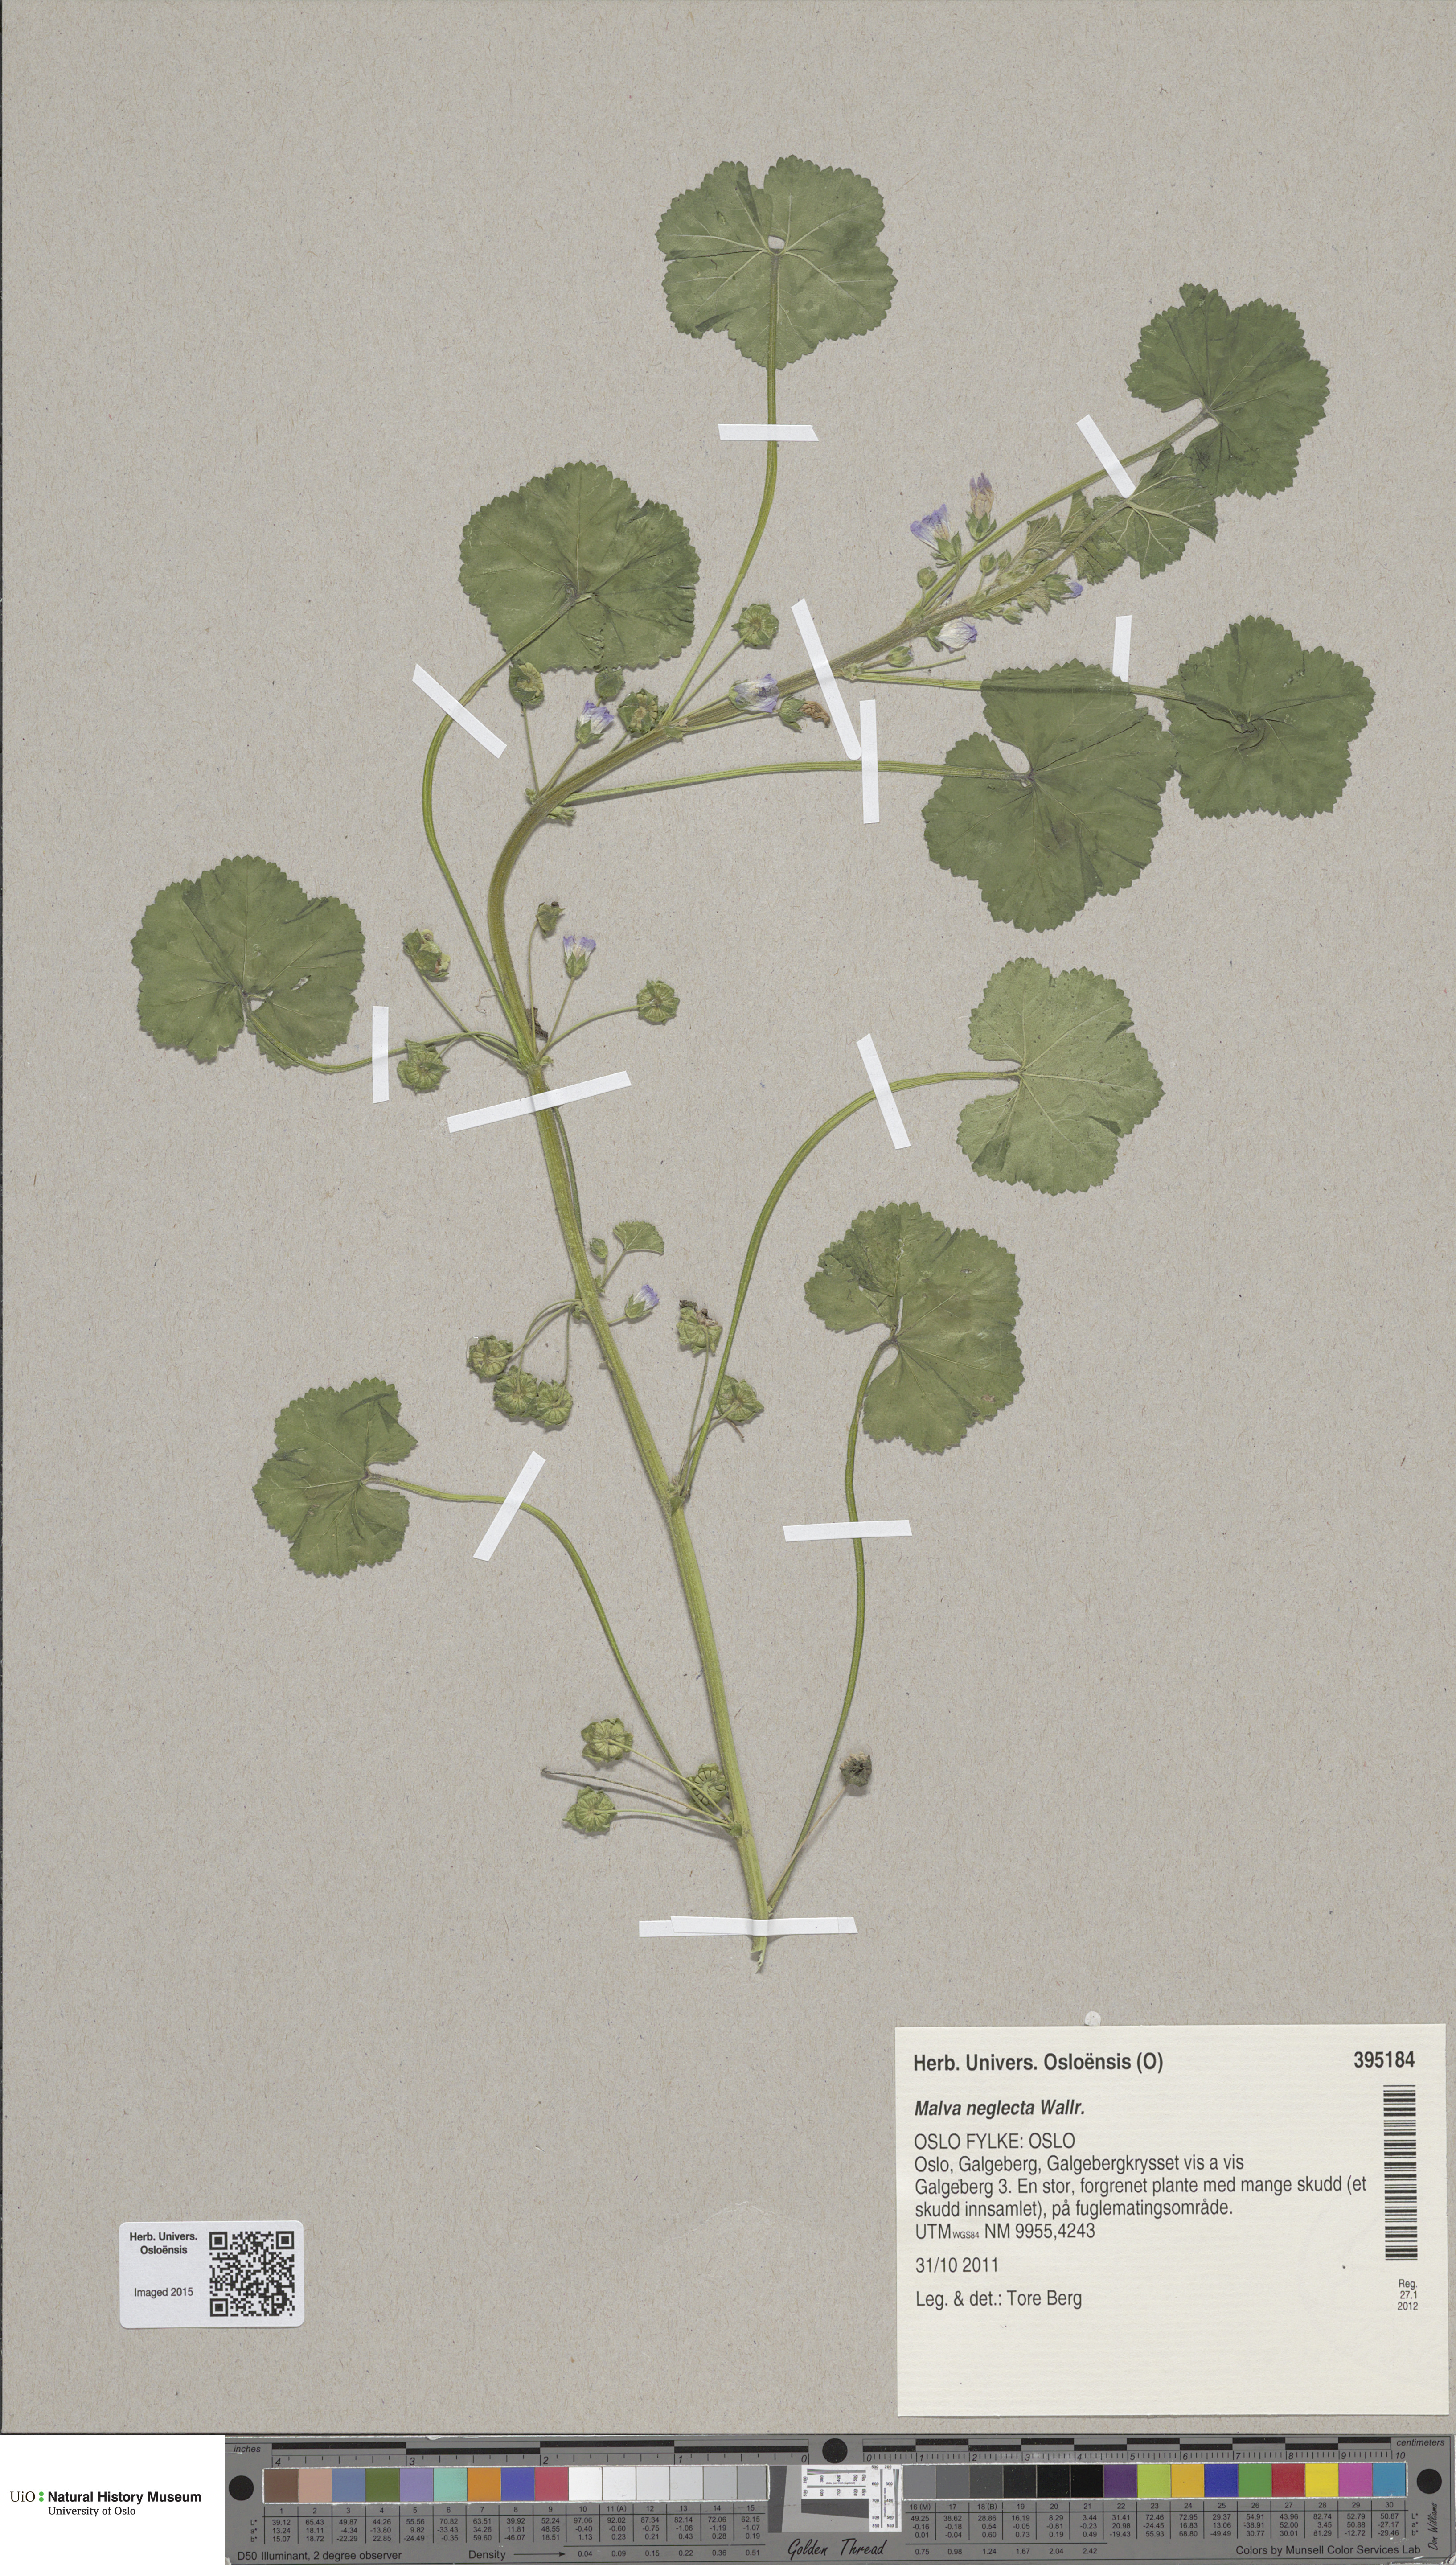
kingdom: Plantae
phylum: Tracheophyta
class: Magnoliopsida
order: Malvales
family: Malvaceae
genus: Malva
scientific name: Malva neglecta
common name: Common mallow
